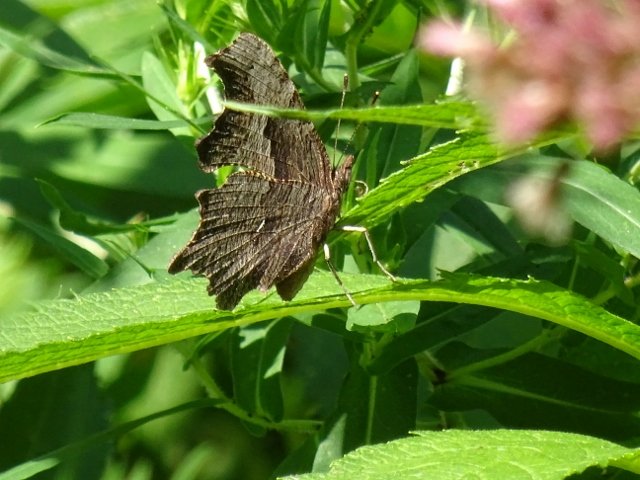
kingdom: Animalia
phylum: Arthropoda
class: Insecta
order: Lepidoptera
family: Nymphalidae
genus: Polygonia
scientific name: Polygonia progne
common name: Gray Comma
